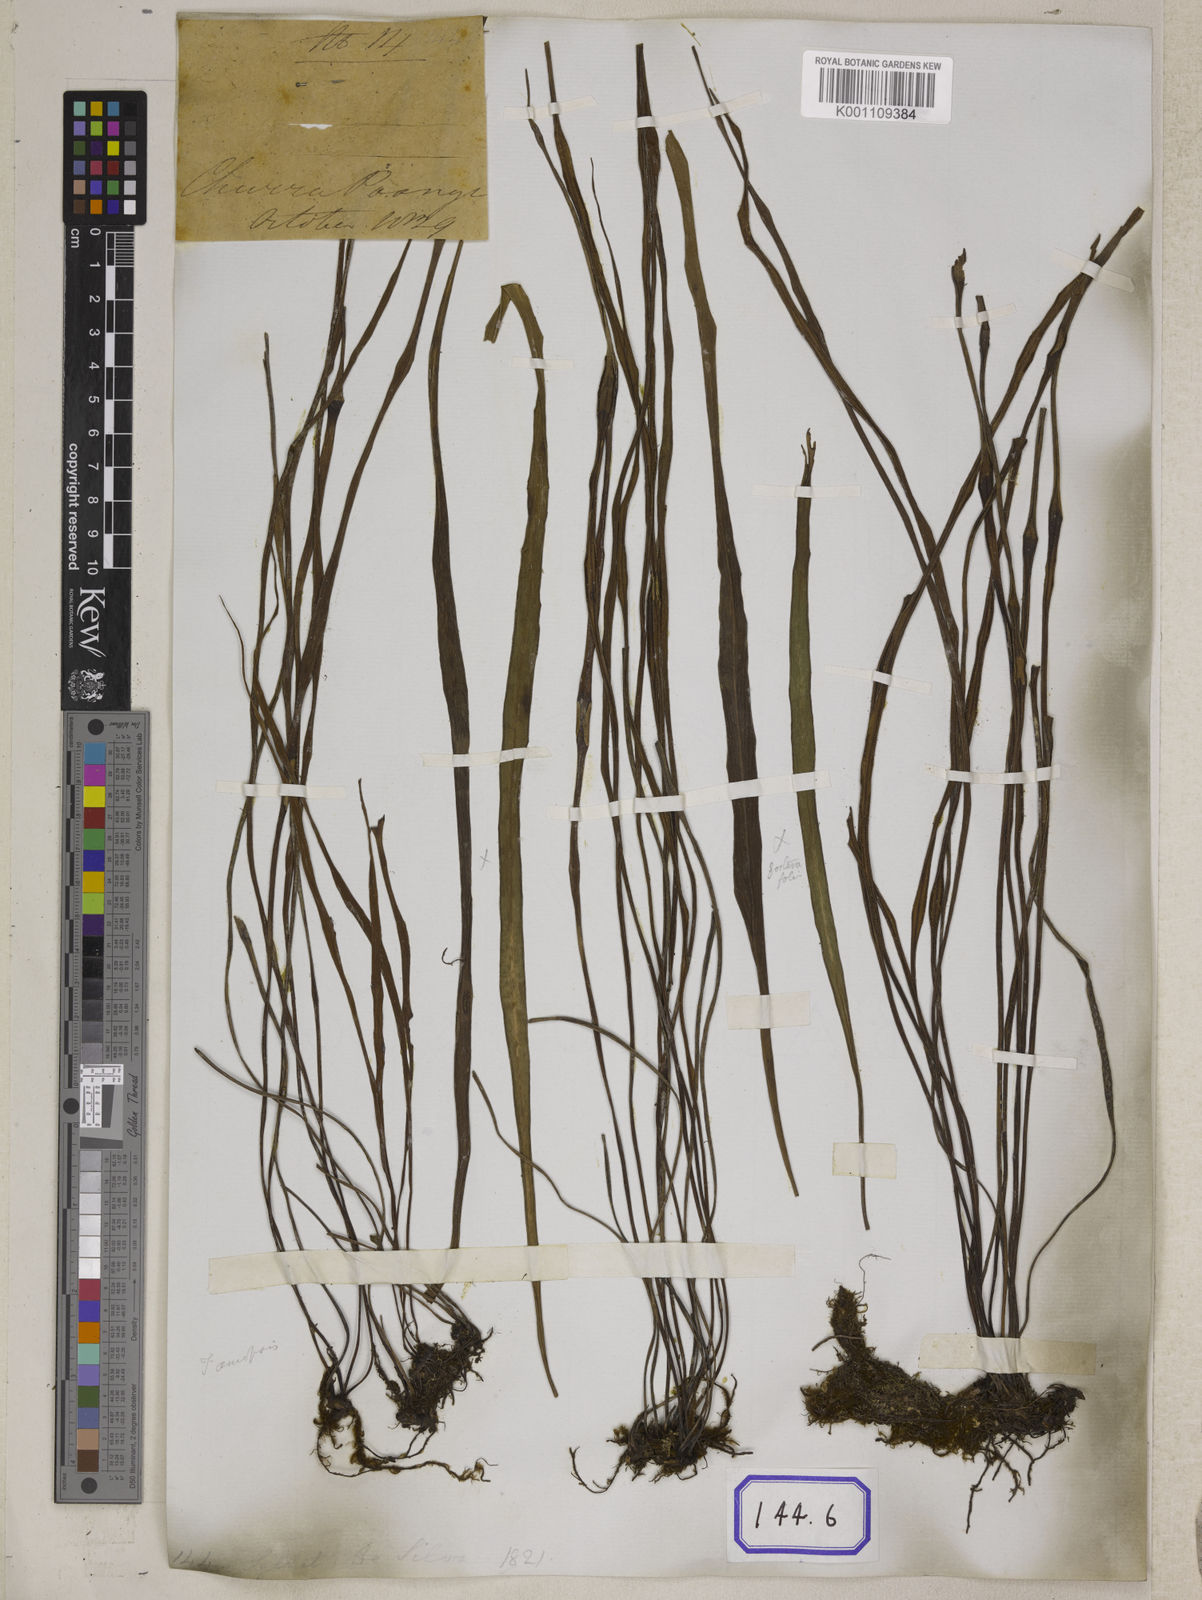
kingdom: Plantae
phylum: Tracheophyta
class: Polypodiopsida
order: Polypodiales
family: Pteridaceae
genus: Haplopteris
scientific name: Haplopteris elongata
